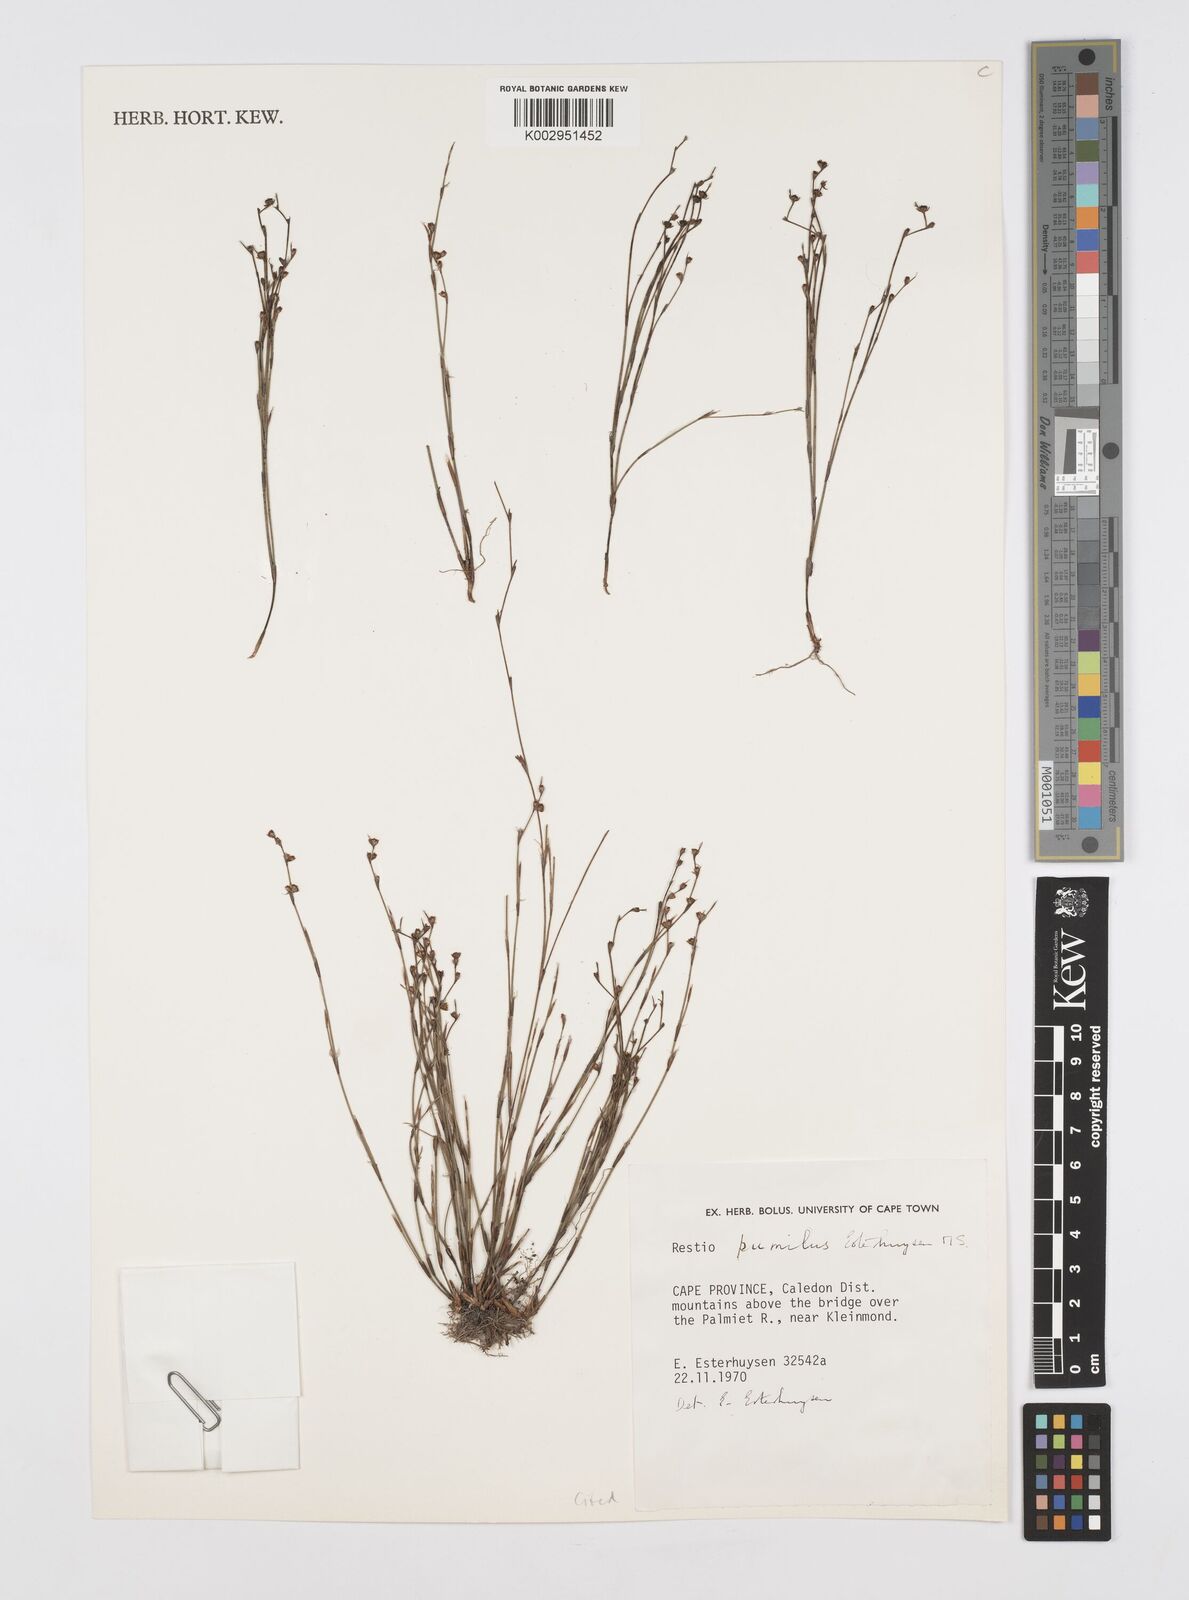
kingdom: Plantae
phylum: Tracheophyta
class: Liliopsida
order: Poales
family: Restionaceae
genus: Restio
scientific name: Restio pumilus
